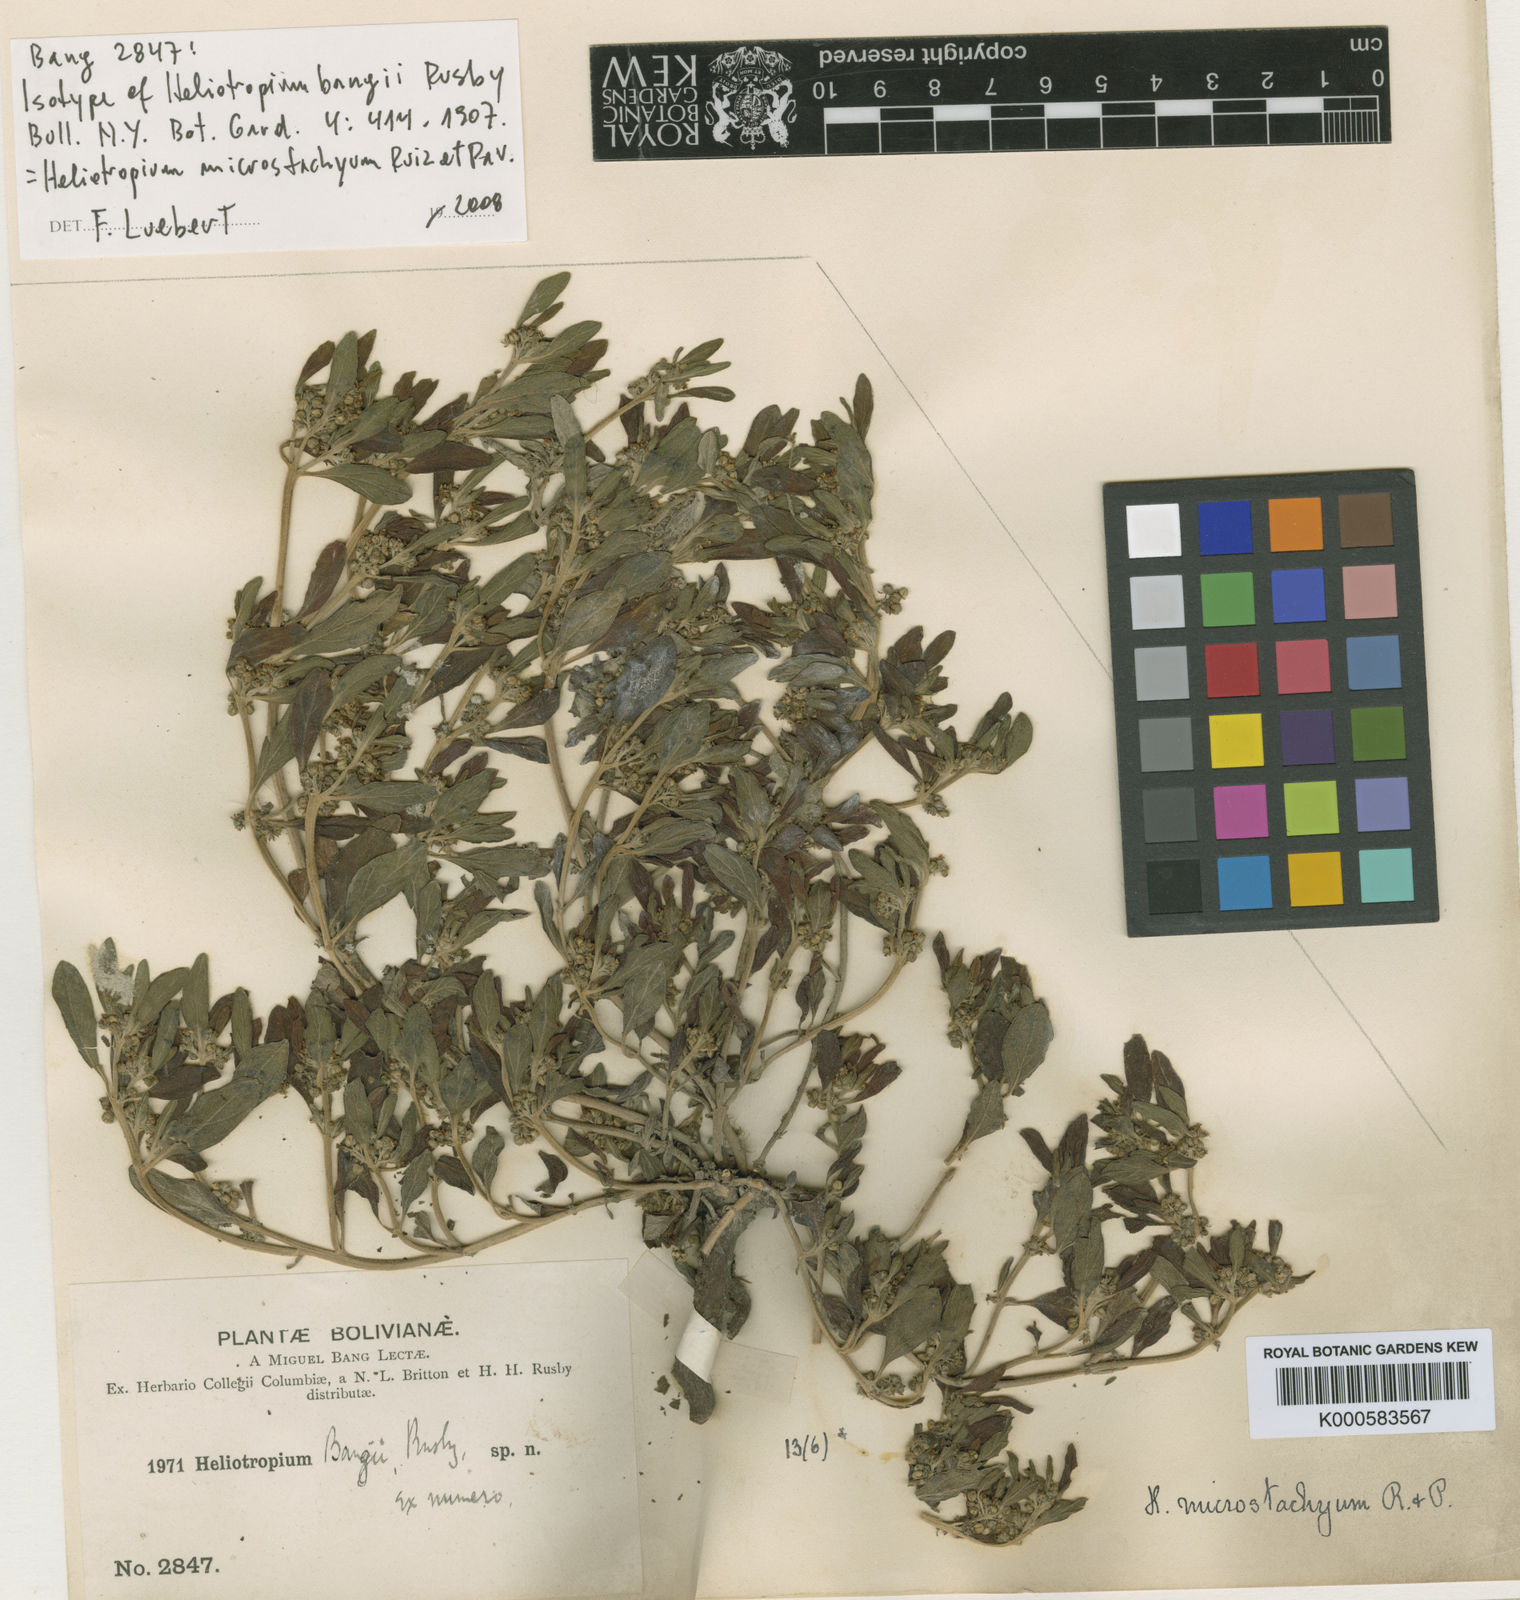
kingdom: Plantae
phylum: Tracheophyta
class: Magnoliopsida
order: Boraginales
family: Heliotropiaceae
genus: Heliotropium
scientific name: Heliotropium microstachyum
